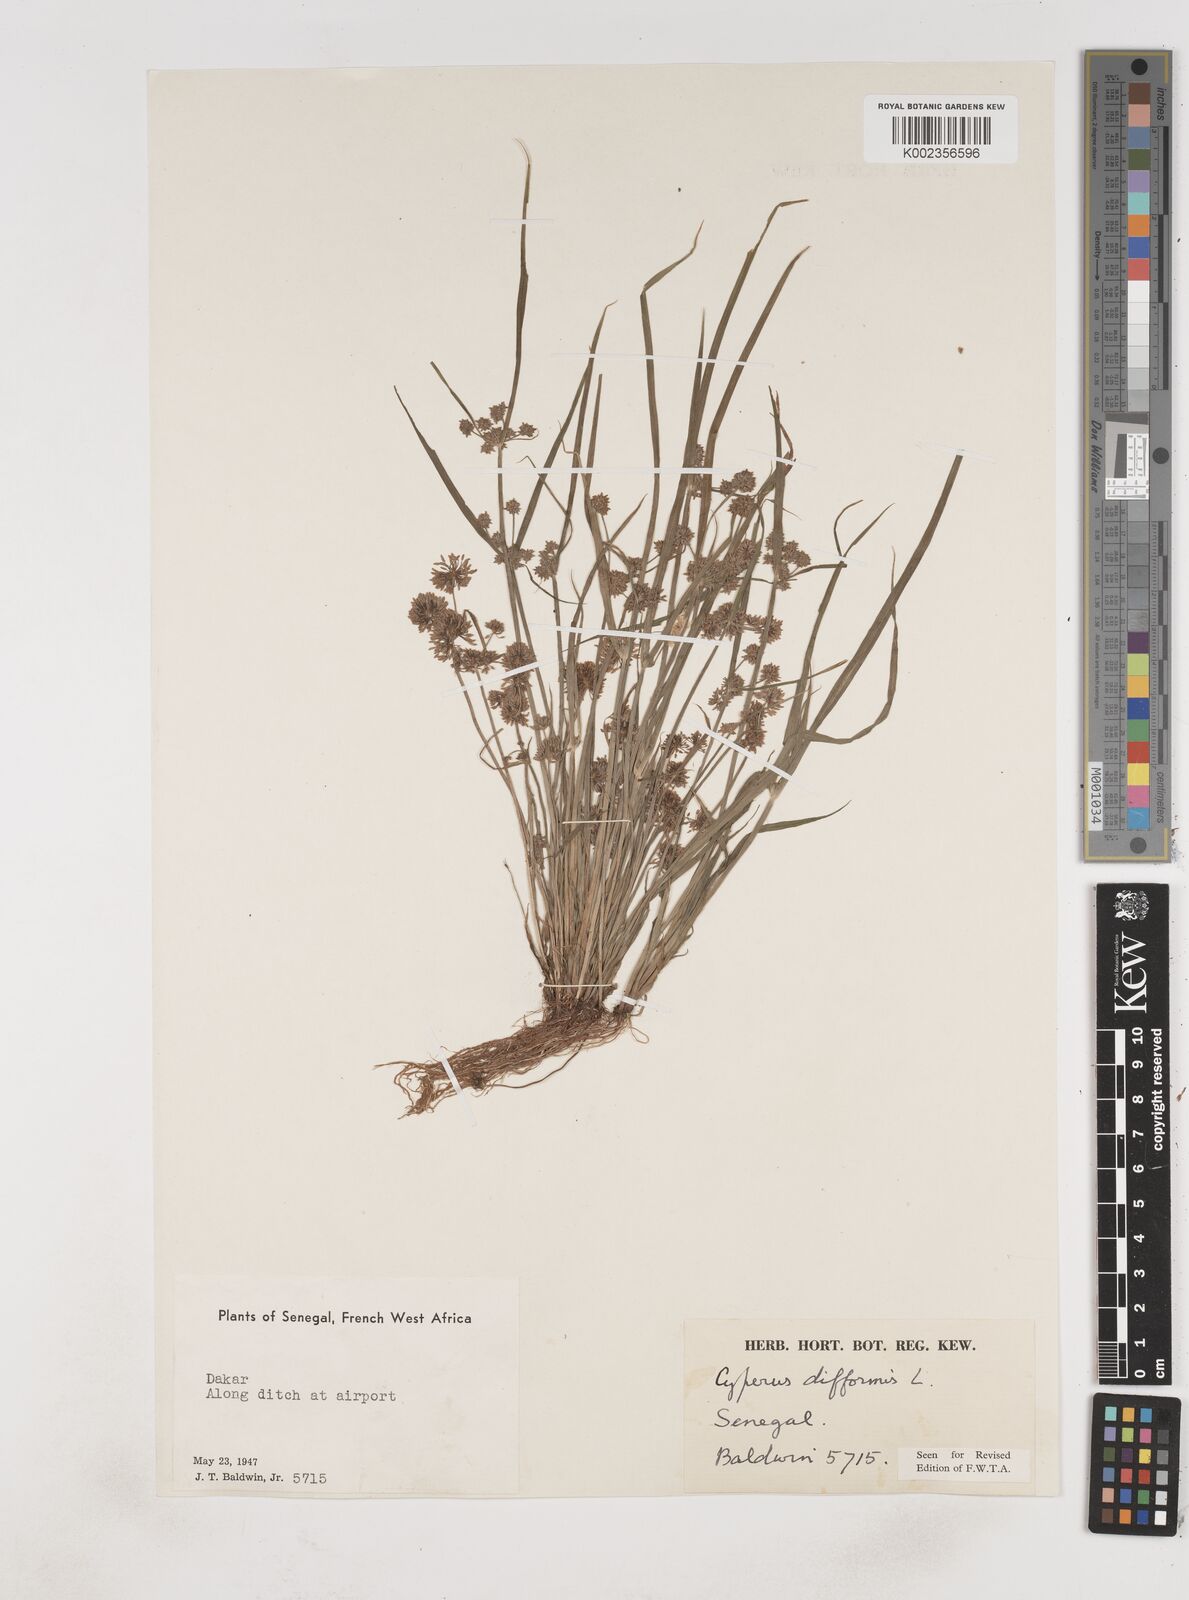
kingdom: Plantae
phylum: Tracheophyta
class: Liliopsida
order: Poales
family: Cyperaceae
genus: Cyperus
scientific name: Cyperus difformis
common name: Variable flatsedge
